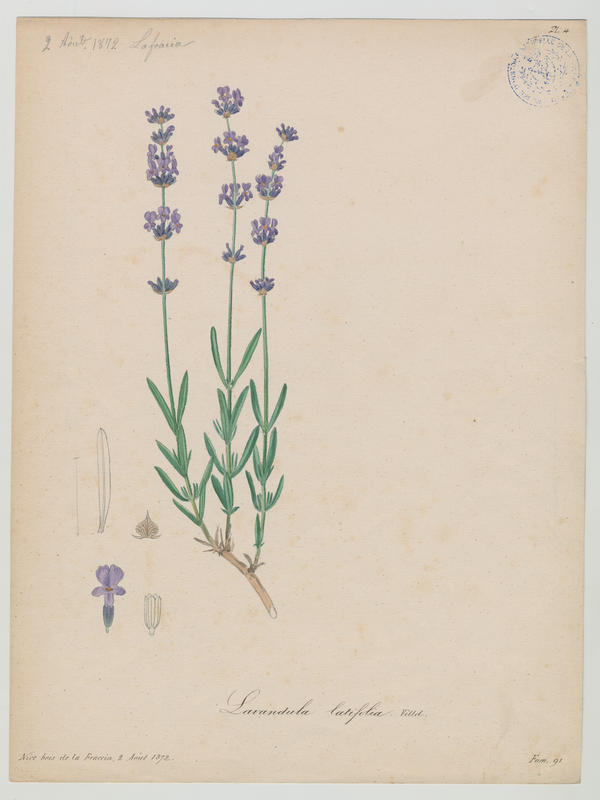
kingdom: Plantae
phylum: Tracheophyta
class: Magnoliopsida
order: Lamiales
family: Lamiaceae
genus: Lavandula
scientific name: Lavandula latifolia
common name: Spike lavendar
